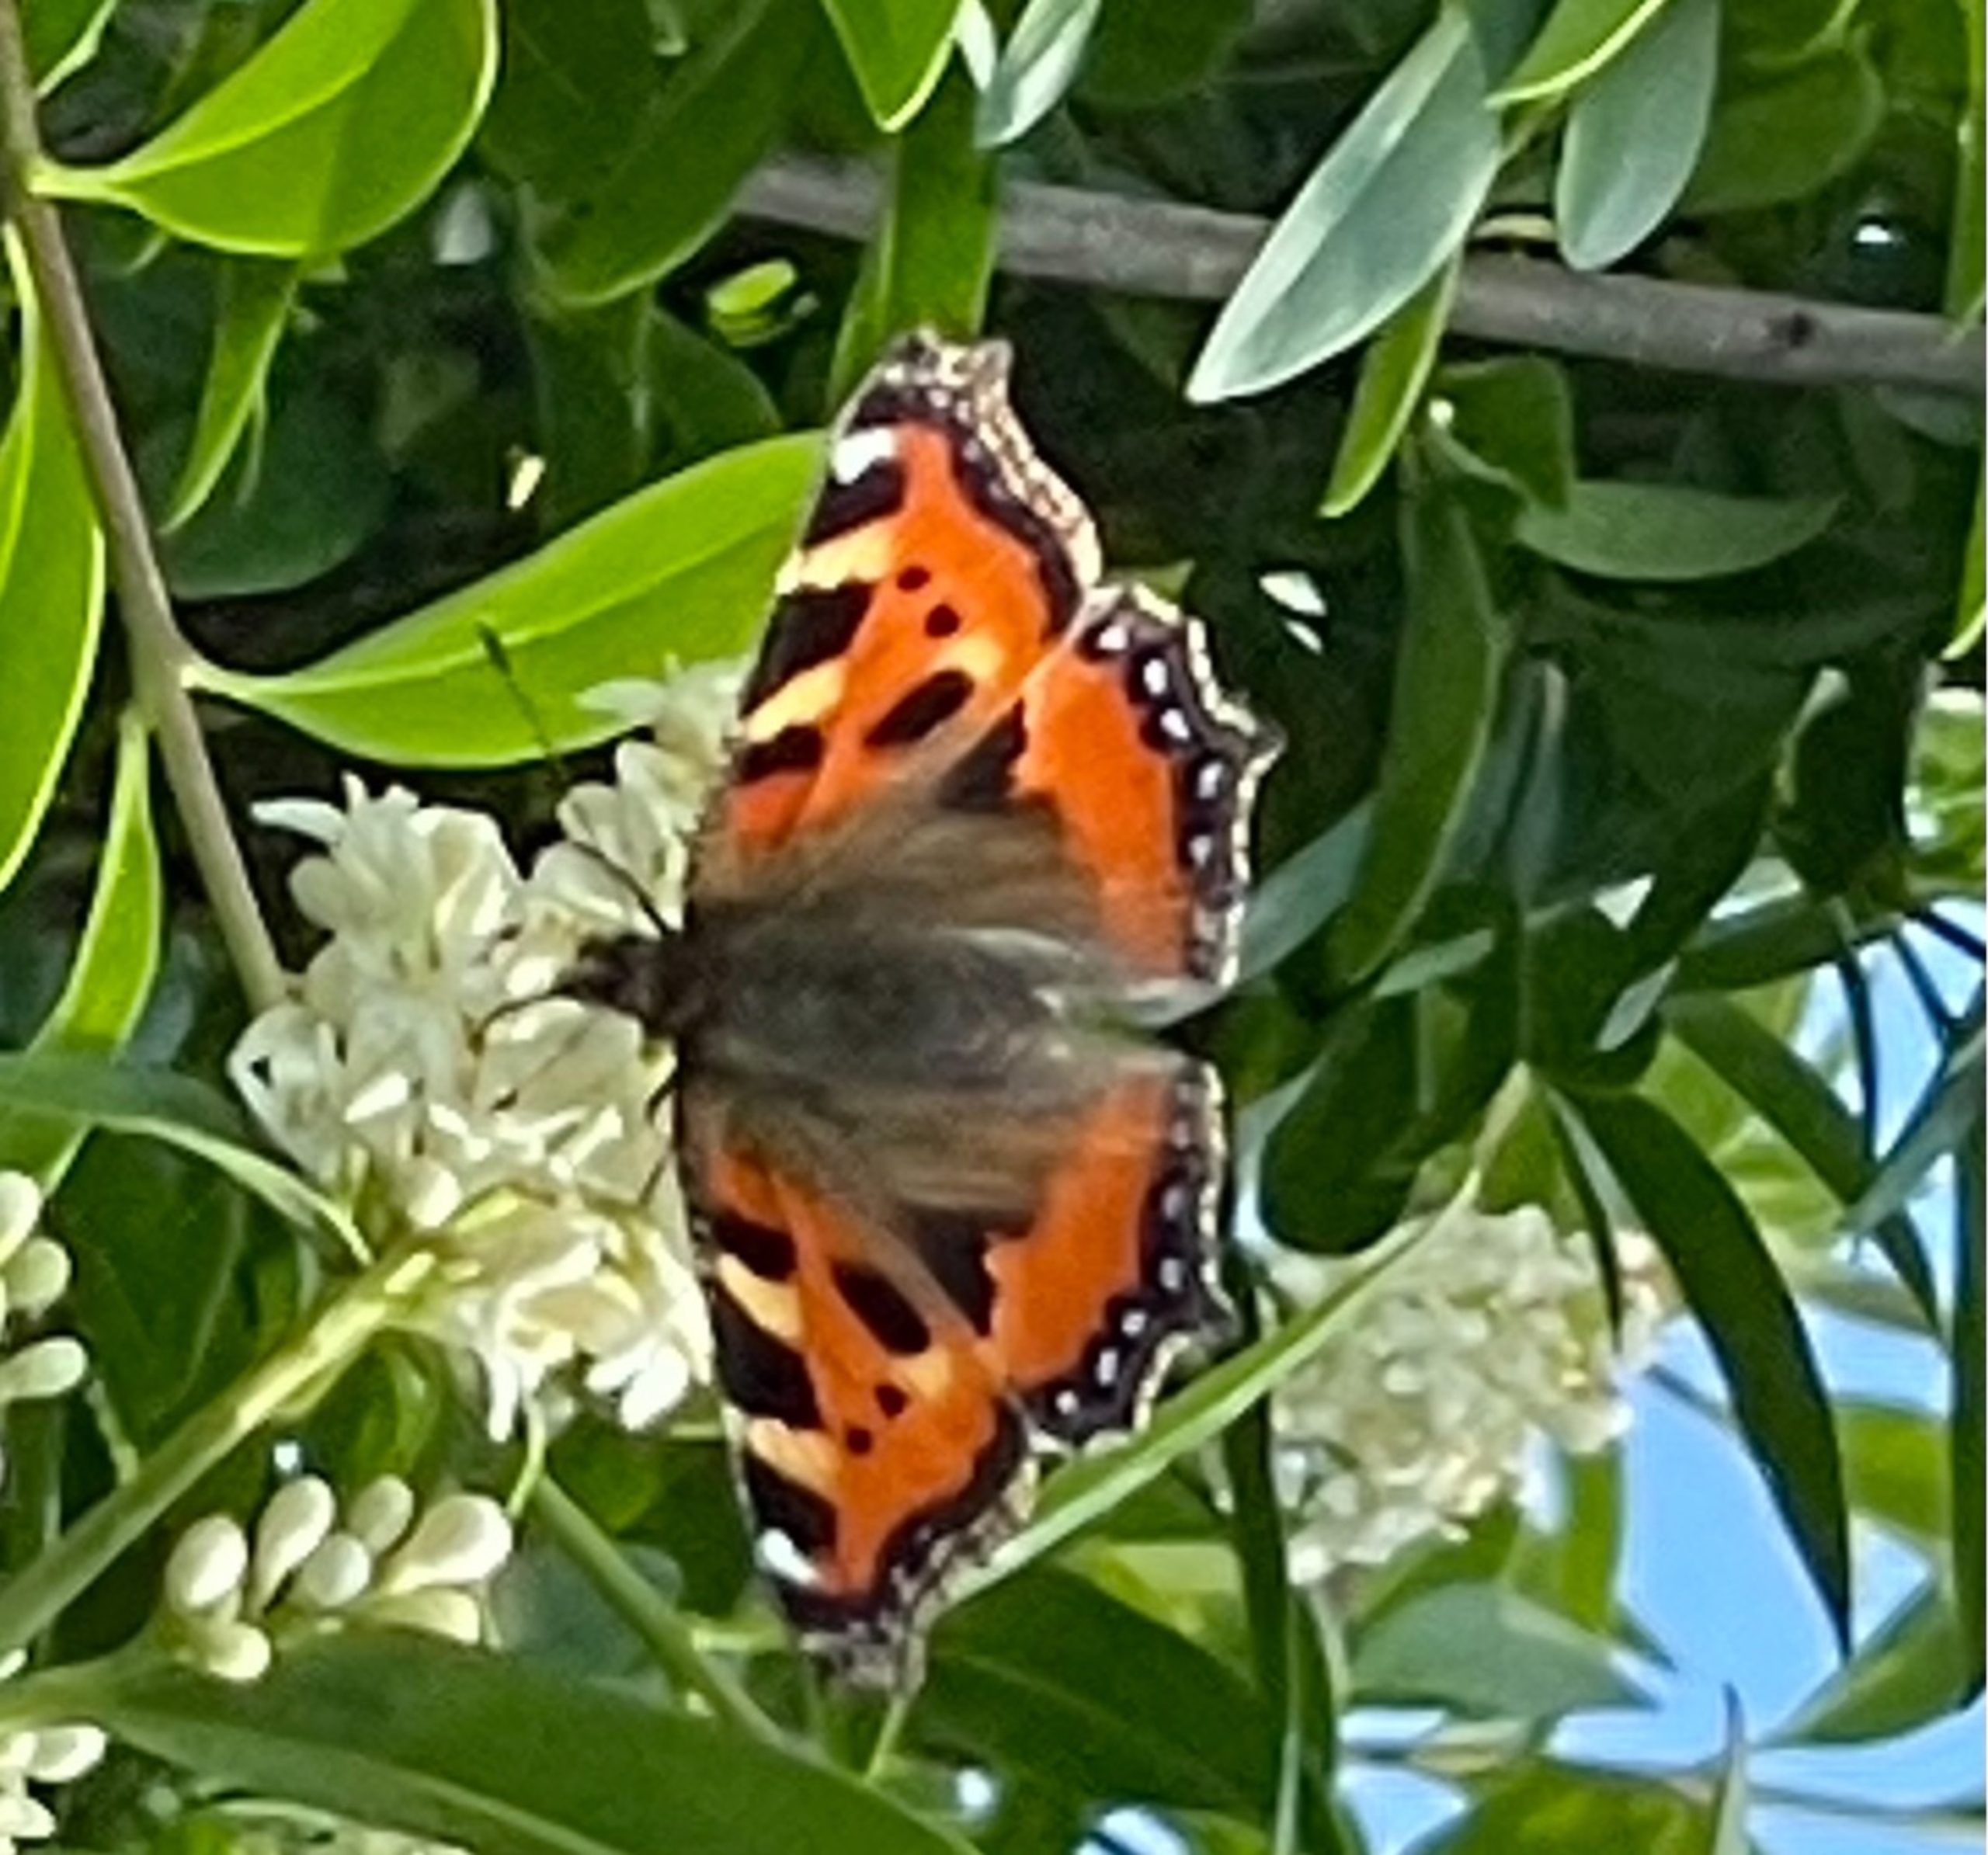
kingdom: Animalia
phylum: Arthropoda
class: Insecta
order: Lepidoptera
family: Nymphalidae
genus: Aglais
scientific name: Aglais urticae
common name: Nældens takvinge
